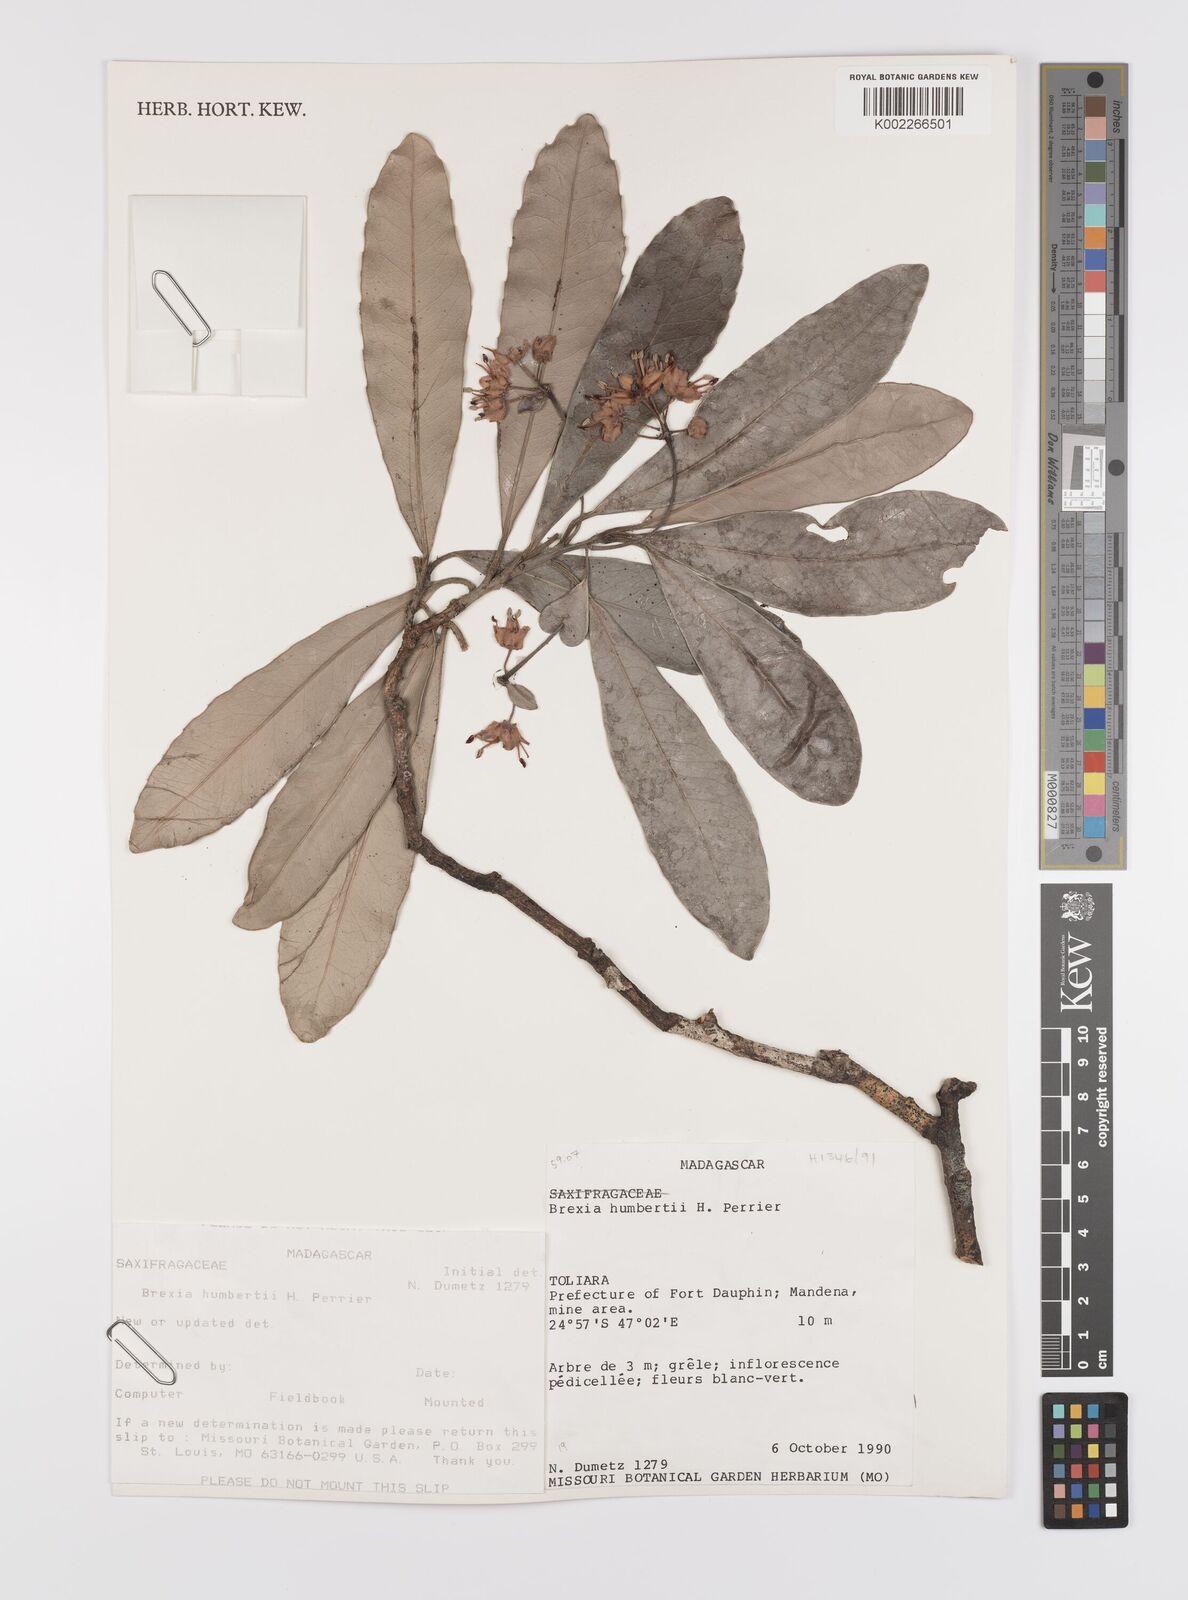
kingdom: Plantae
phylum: Tracheophyta
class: Magnoliopsida
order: Celastrales
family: Celastraceae
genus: Brexia
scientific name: Brexia humbertii
